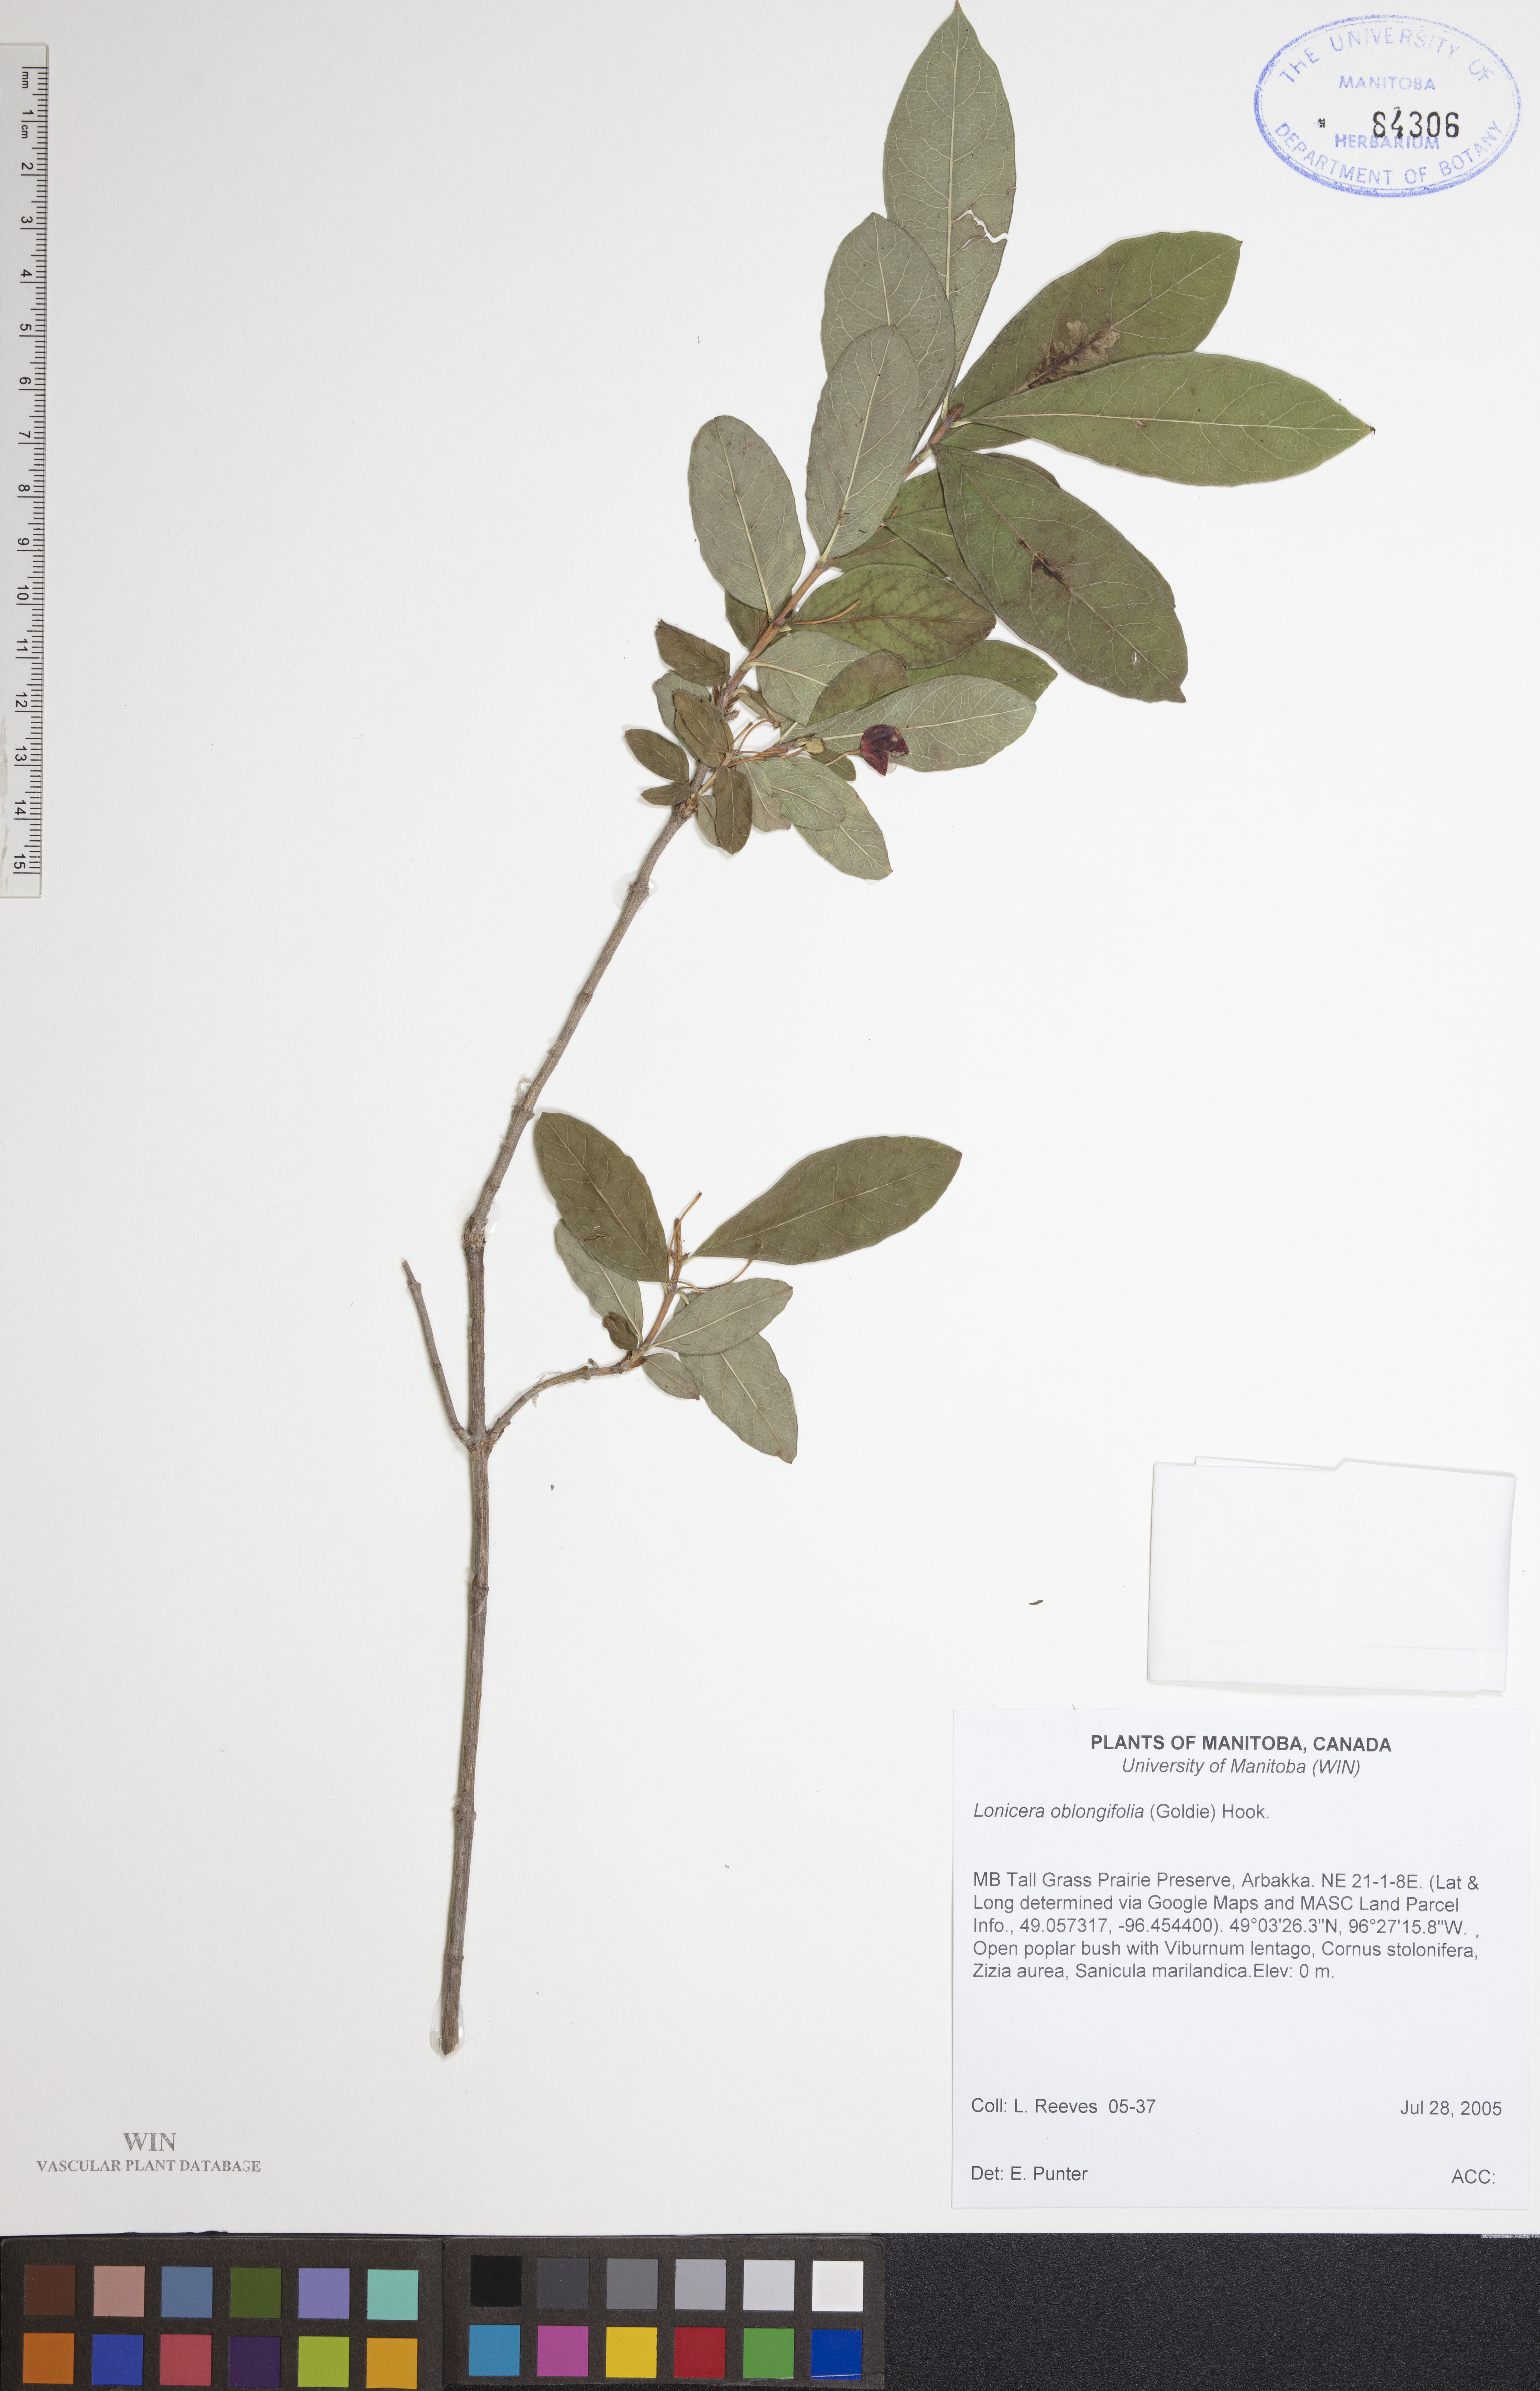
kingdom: Plantae
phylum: Tracheophyta
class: Magnoliopsida
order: Dipsacales
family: Caprifoliaceae
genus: Lonicera
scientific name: Lonicera oblongifolia
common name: Swamp fly honeysuckle
